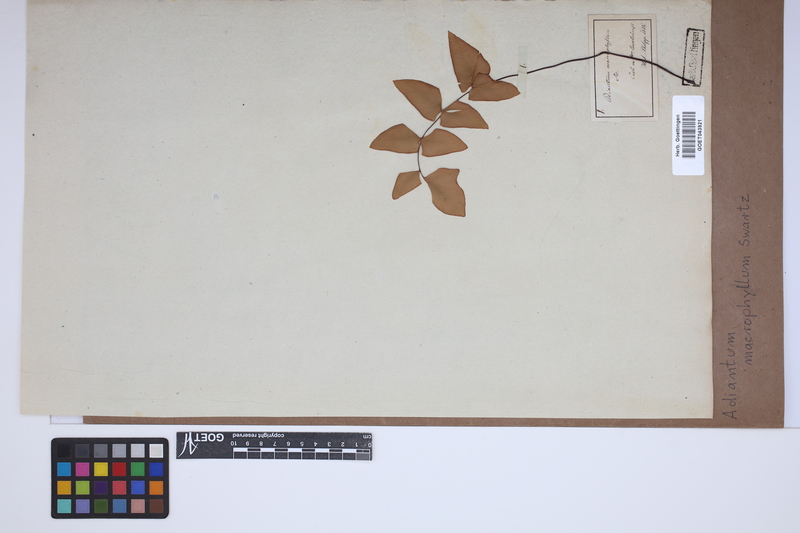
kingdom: Plantae
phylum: Tracheophyta
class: Polypodiopsida
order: Polypodiales
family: Pteridaceae
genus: Adiantum
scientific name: Adiantum macrophyllum
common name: Largeleaf maidenhair
